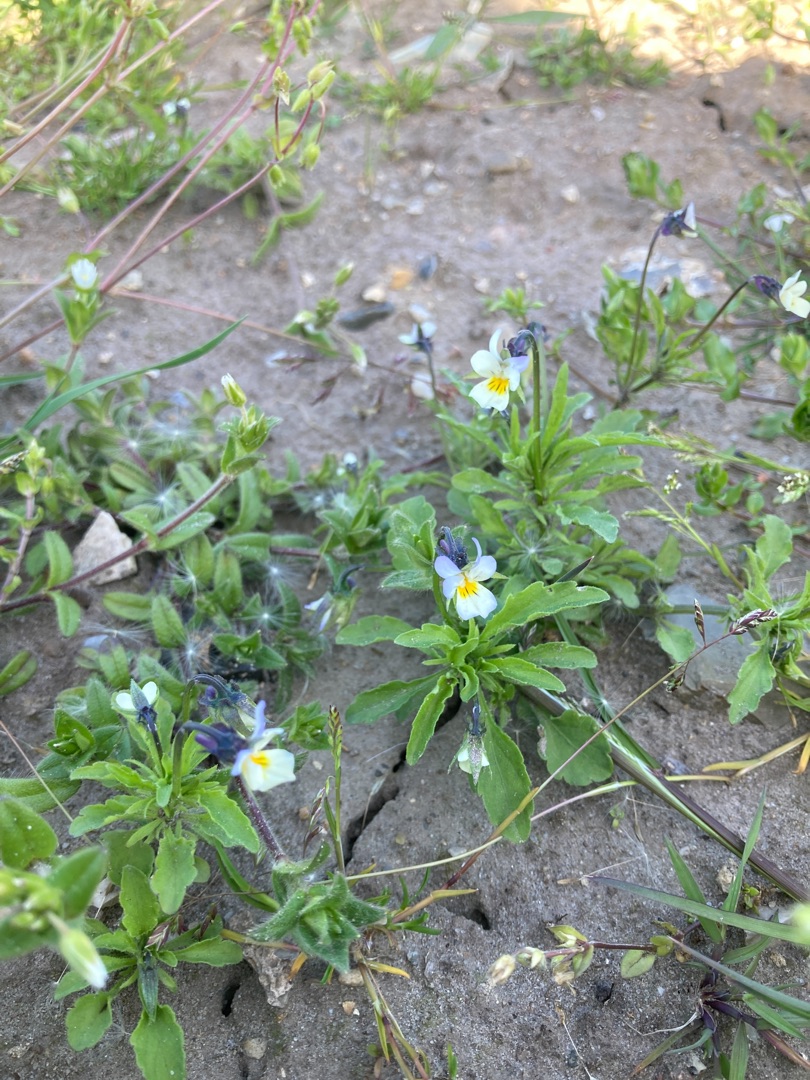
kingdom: Plantae
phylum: Tracheophyta
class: Magnoliopsida
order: Malpighiales
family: Violaceae
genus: Viola
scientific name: Viola arvensis
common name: Ager-stedmoderblomst
